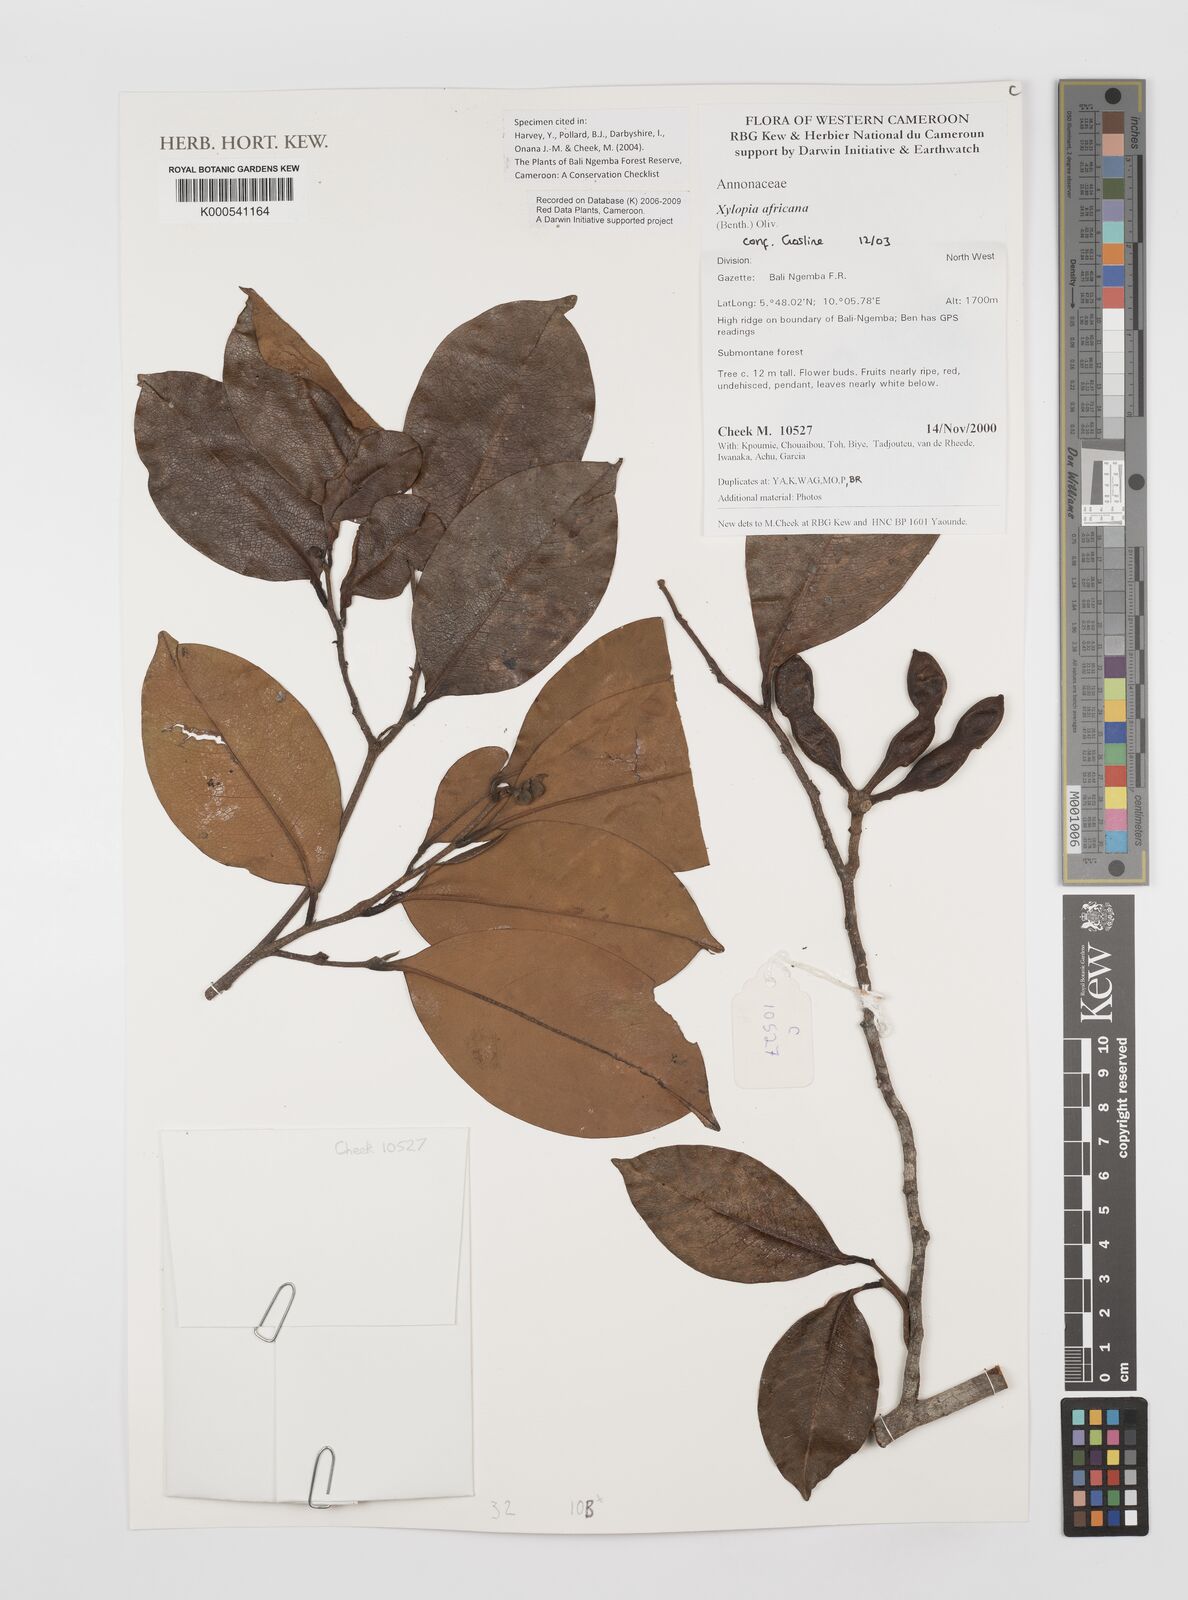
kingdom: Plantae
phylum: Tracheophyta
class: Magnoliopsida
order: Magnoliales
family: Annonaceae
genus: Xylopia
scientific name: Xylopia africana
